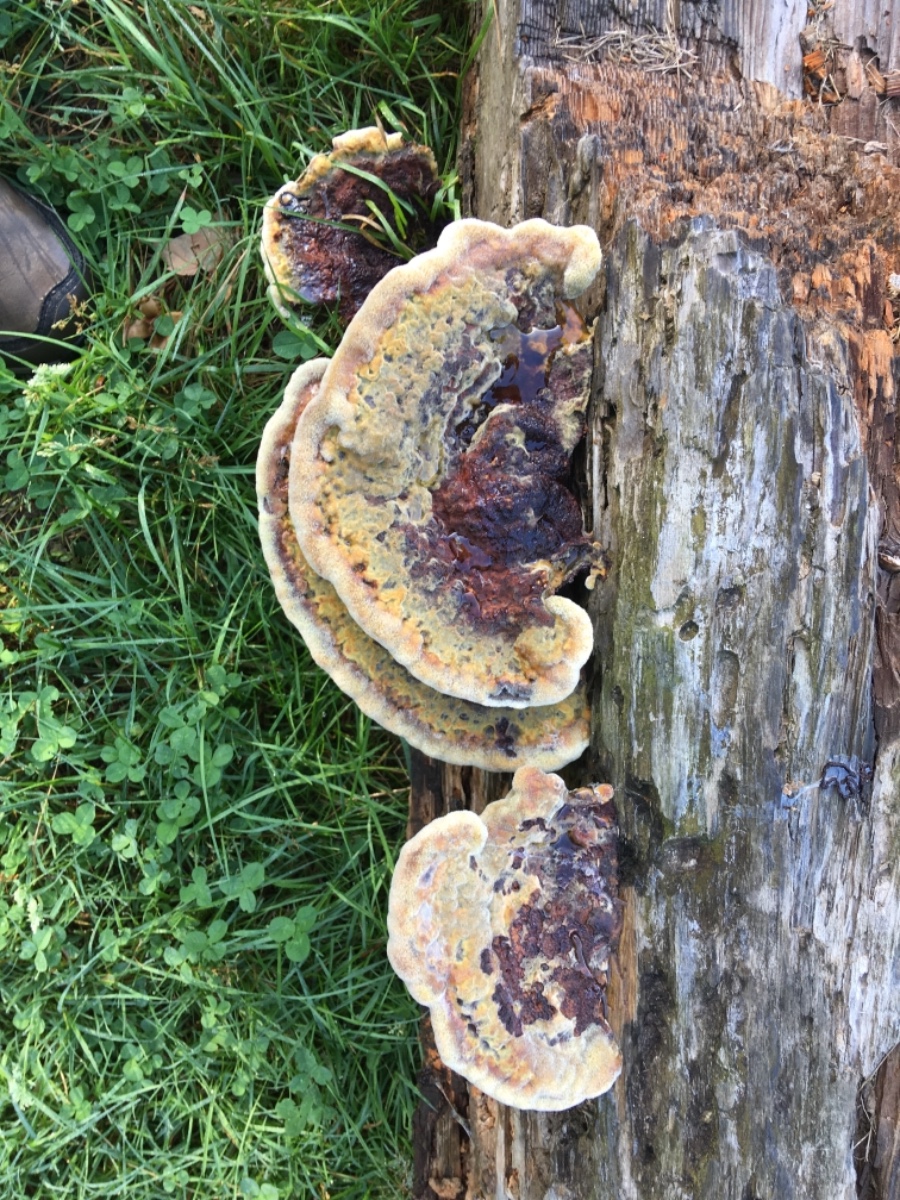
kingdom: Fungi
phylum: Basidiomycota
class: Agaricomycetes
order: Polyporales
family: Laetiporaceae
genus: Phaeolus
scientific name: Phaeolus schweinitzii
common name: brunporesvamp
